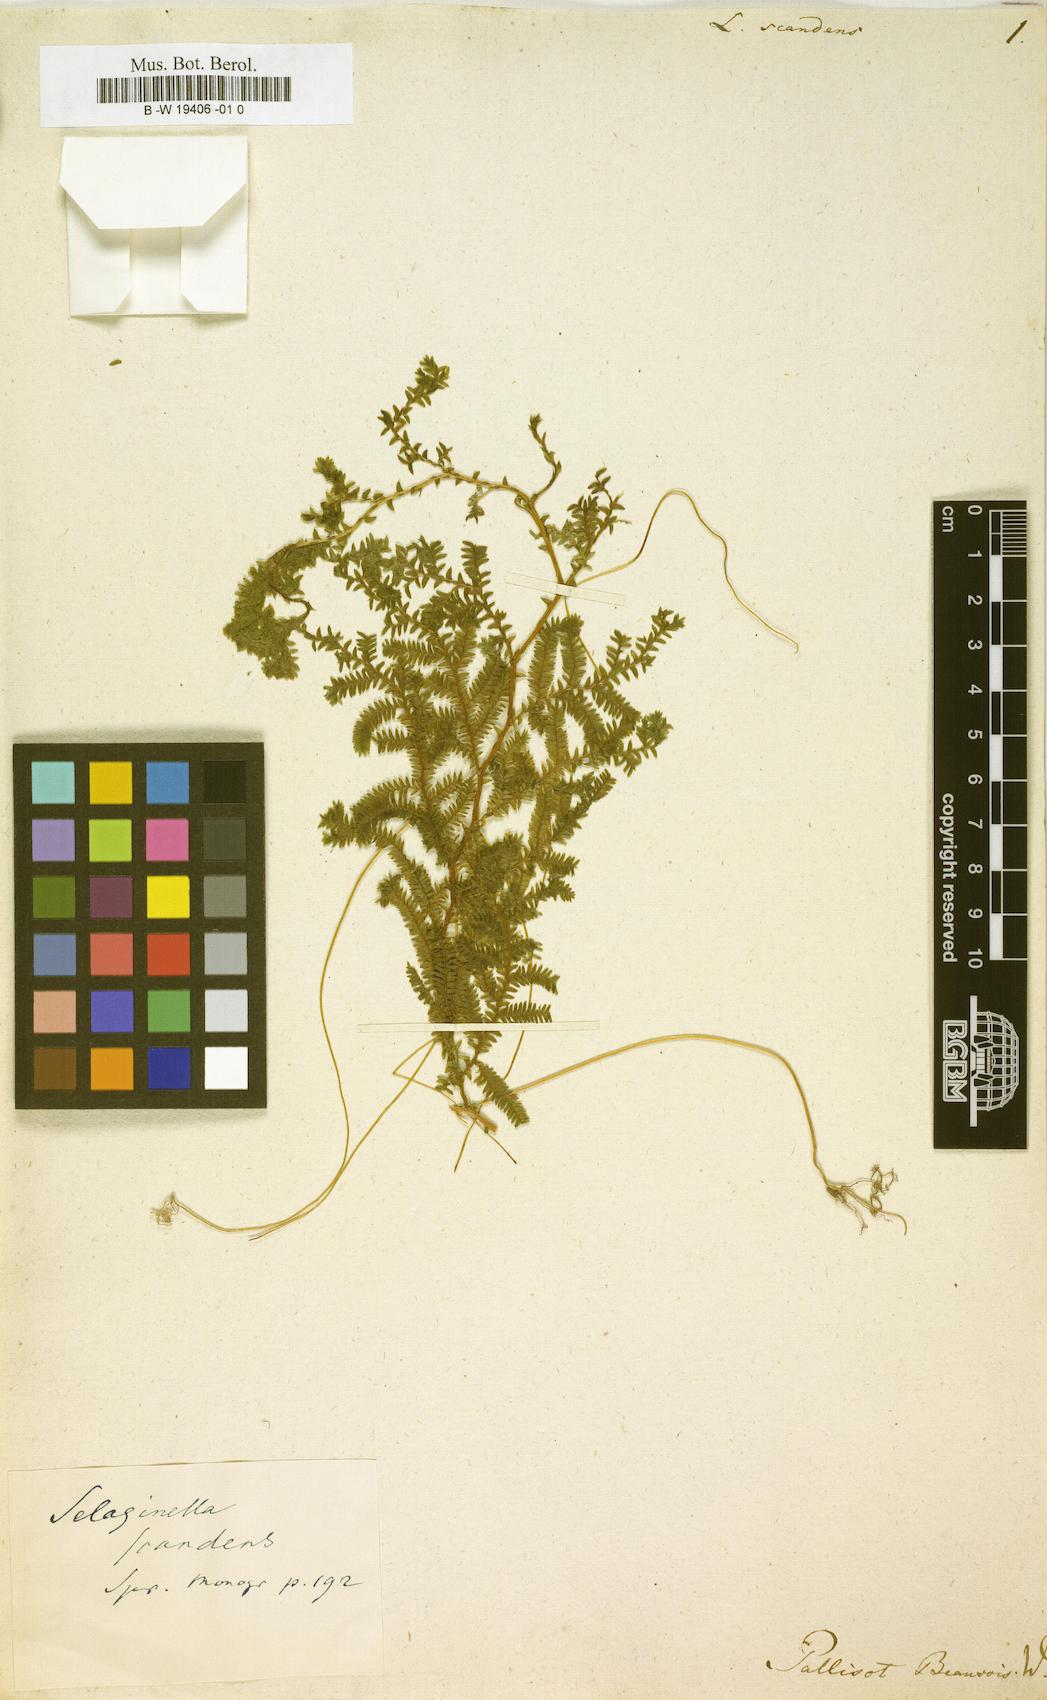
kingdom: Plantae
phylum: Tracheophyta
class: Lycopodiopsida
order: Selaginellales
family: Selaginellaceae
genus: Selaginella
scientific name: Selaginella myosurus
